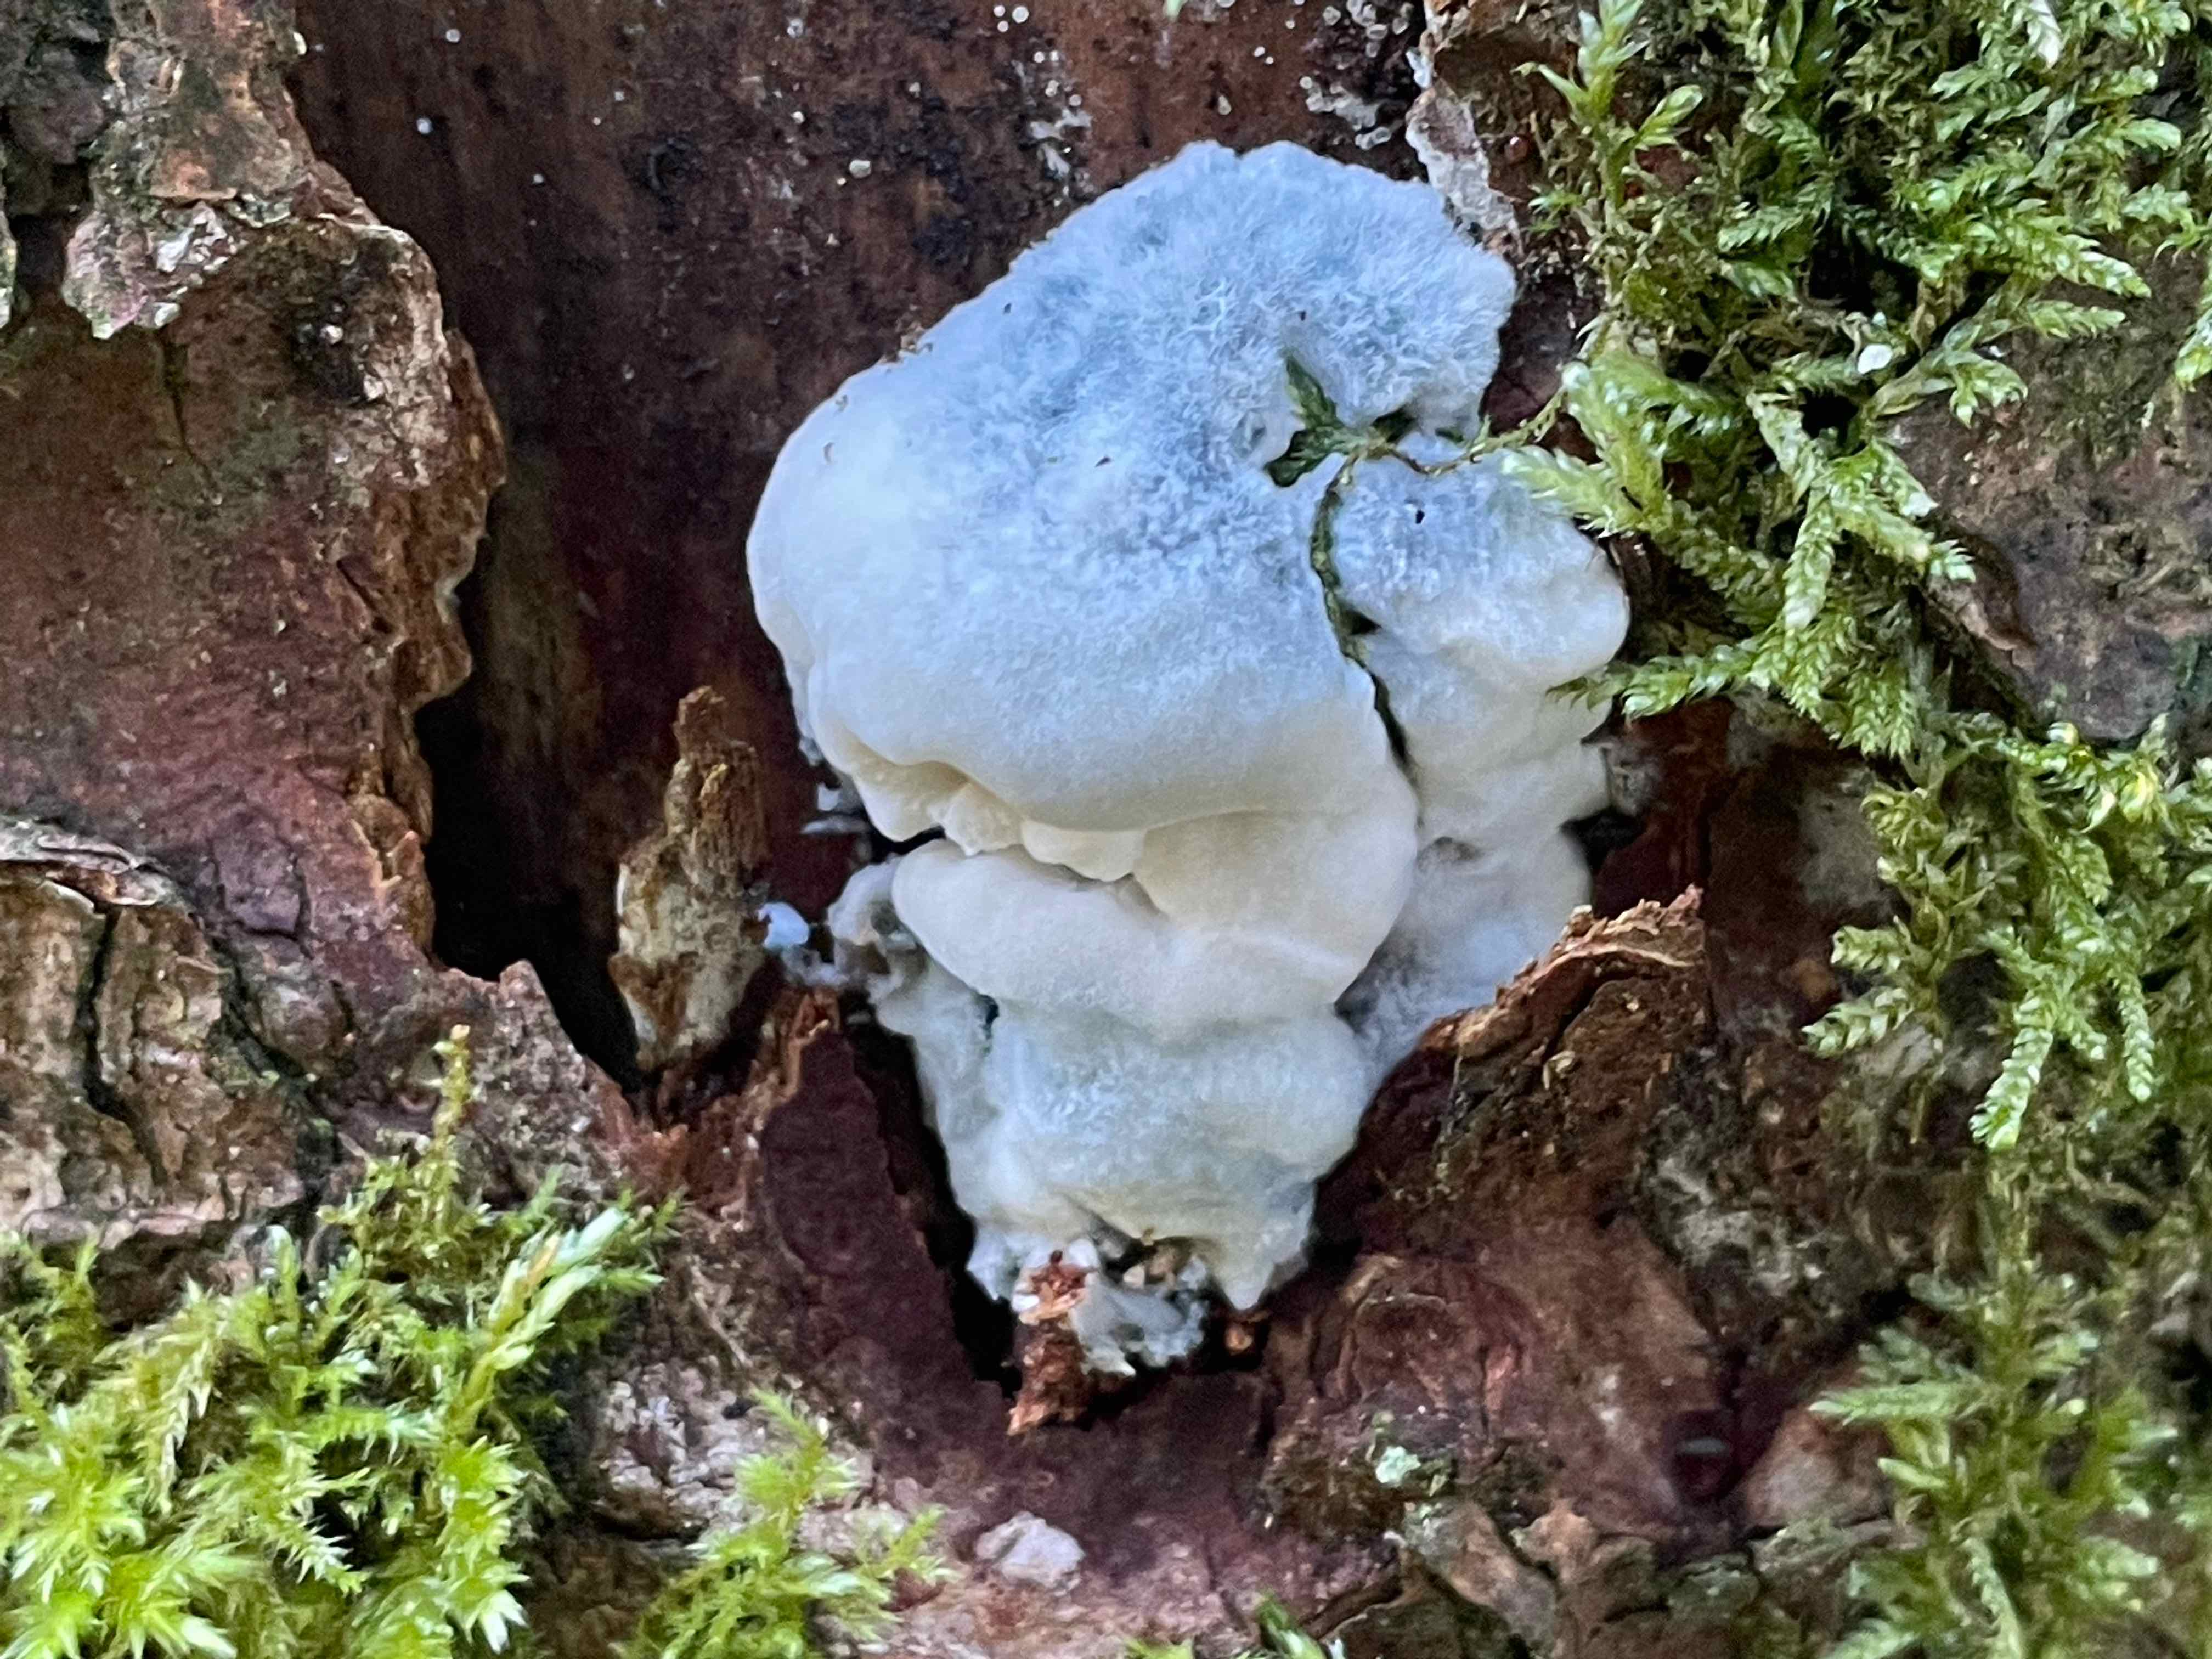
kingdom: Fungi
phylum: Basidiomycota
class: Agaricomycetes
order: Polyporales
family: Polyporaceae
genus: Cyanosporus
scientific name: Cyanosporus caesius
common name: blålig kødporesvamp
